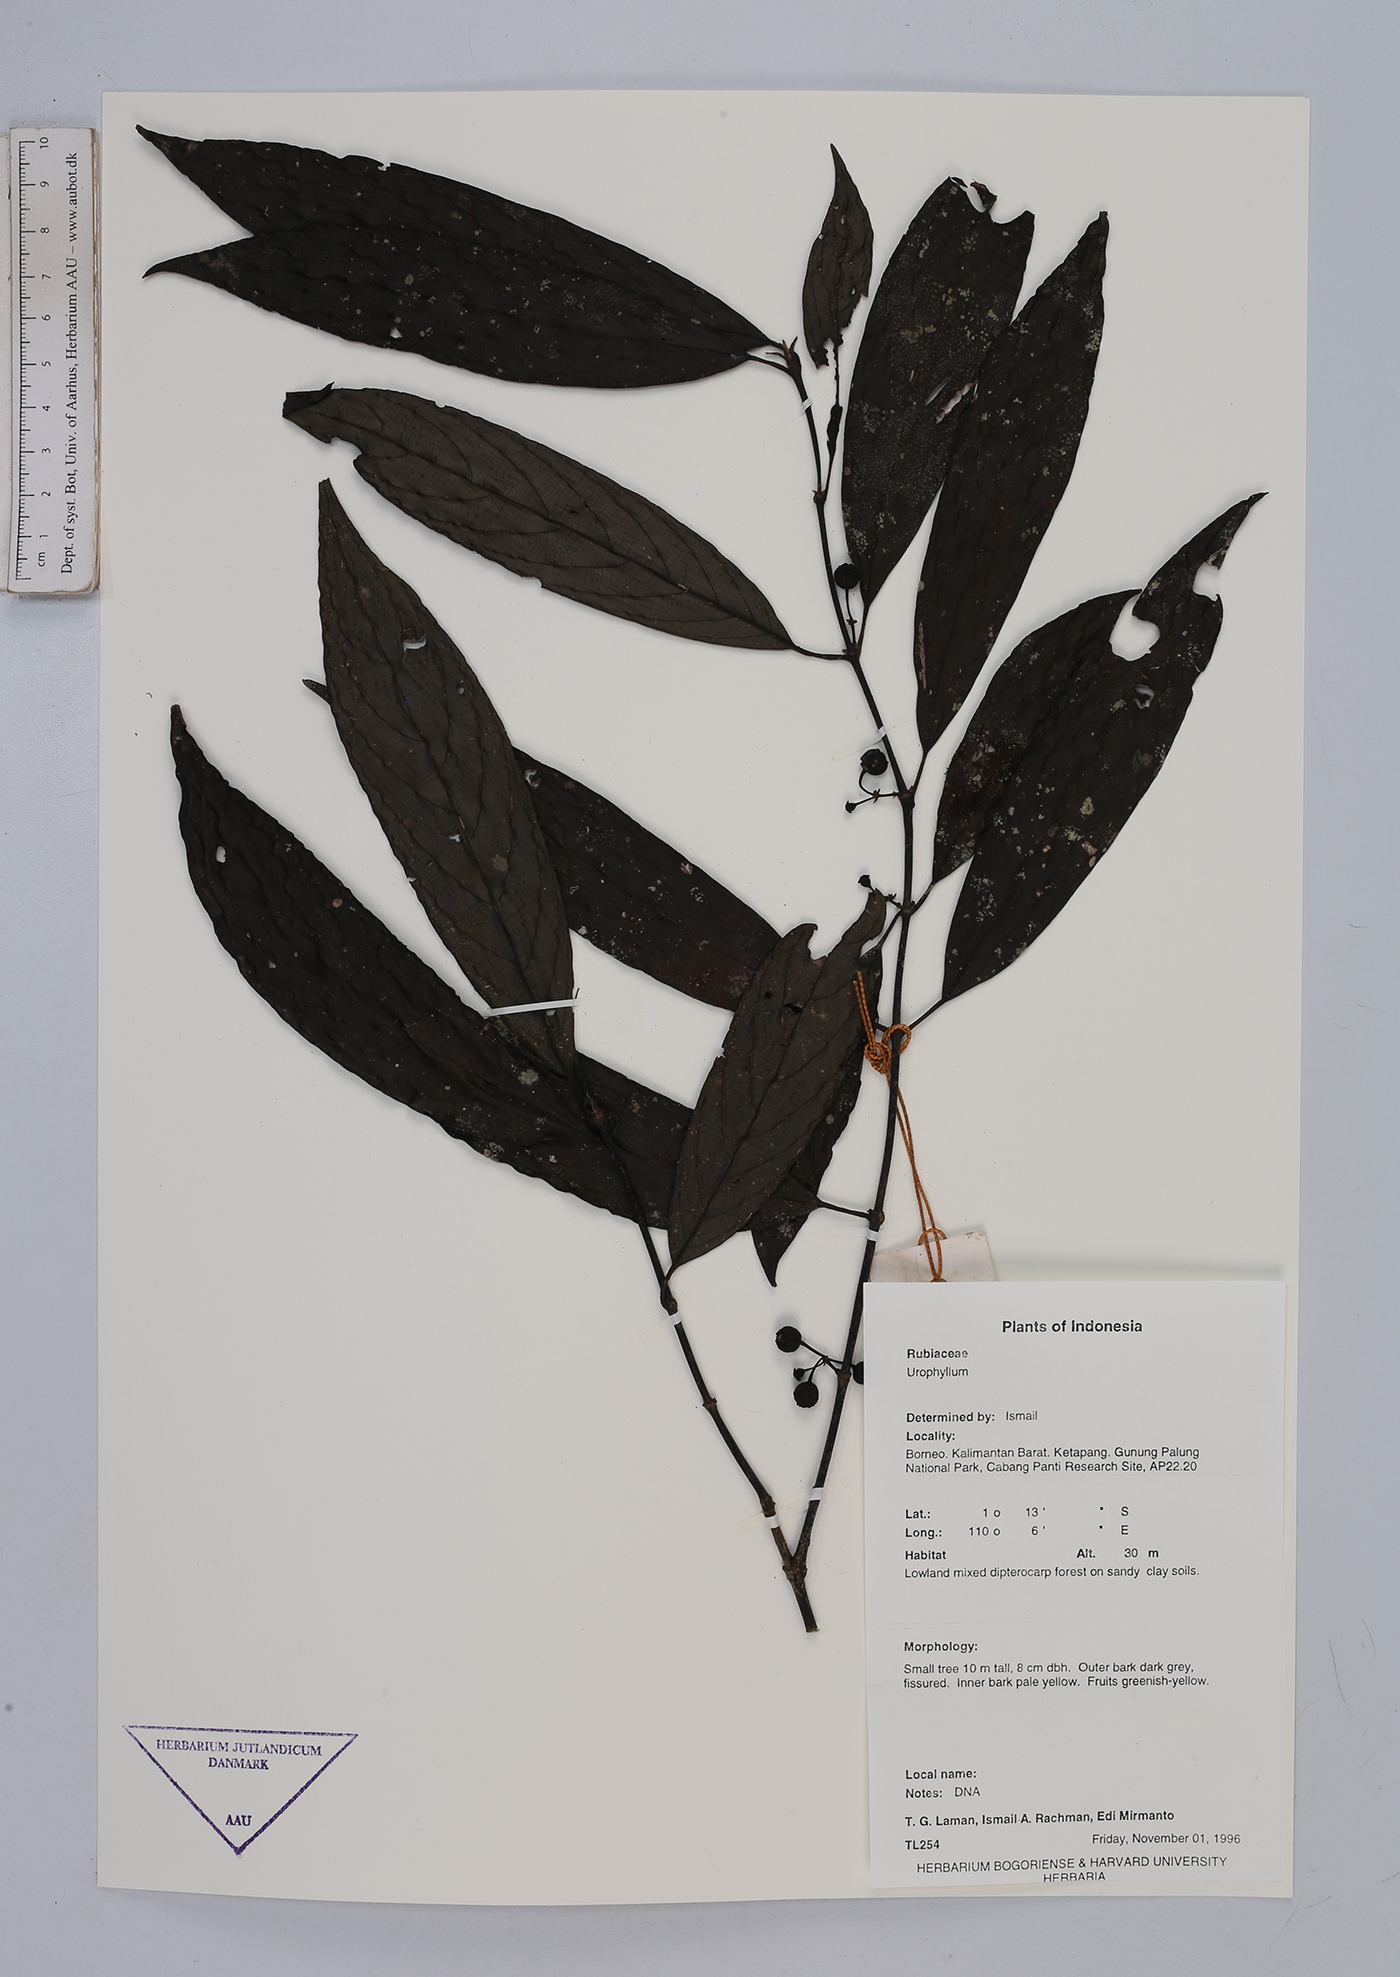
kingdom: Plantae
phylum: Tracheophyta
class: Magnoliopsida
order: Gentianales
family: Rubiaceae
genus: Urophyllum
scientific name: Urophyllum
